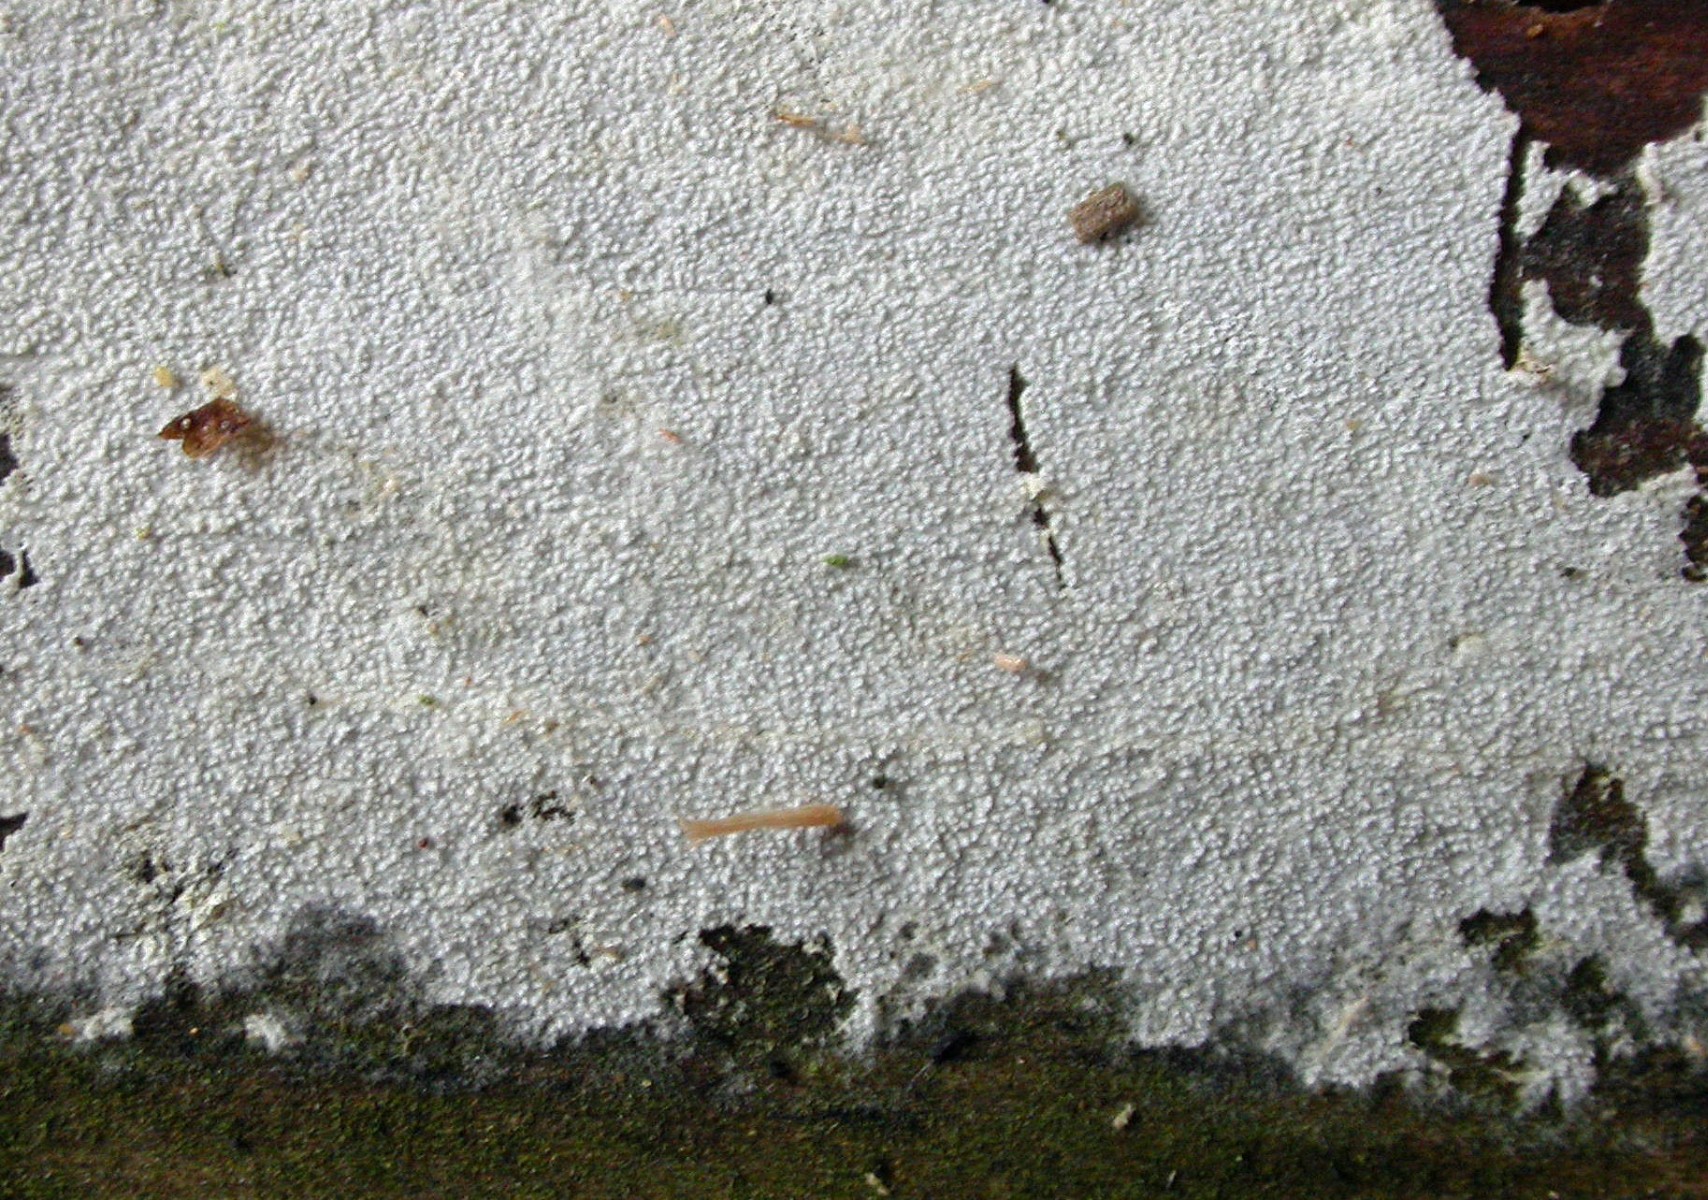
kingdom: Fungi
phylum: Basidiomycota
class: Agaricomycetes
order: Hymenochaetales
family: Schizoporaceae
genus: Xylodon
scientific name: Xylodon nesporii
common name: fintandet tandsvamp
